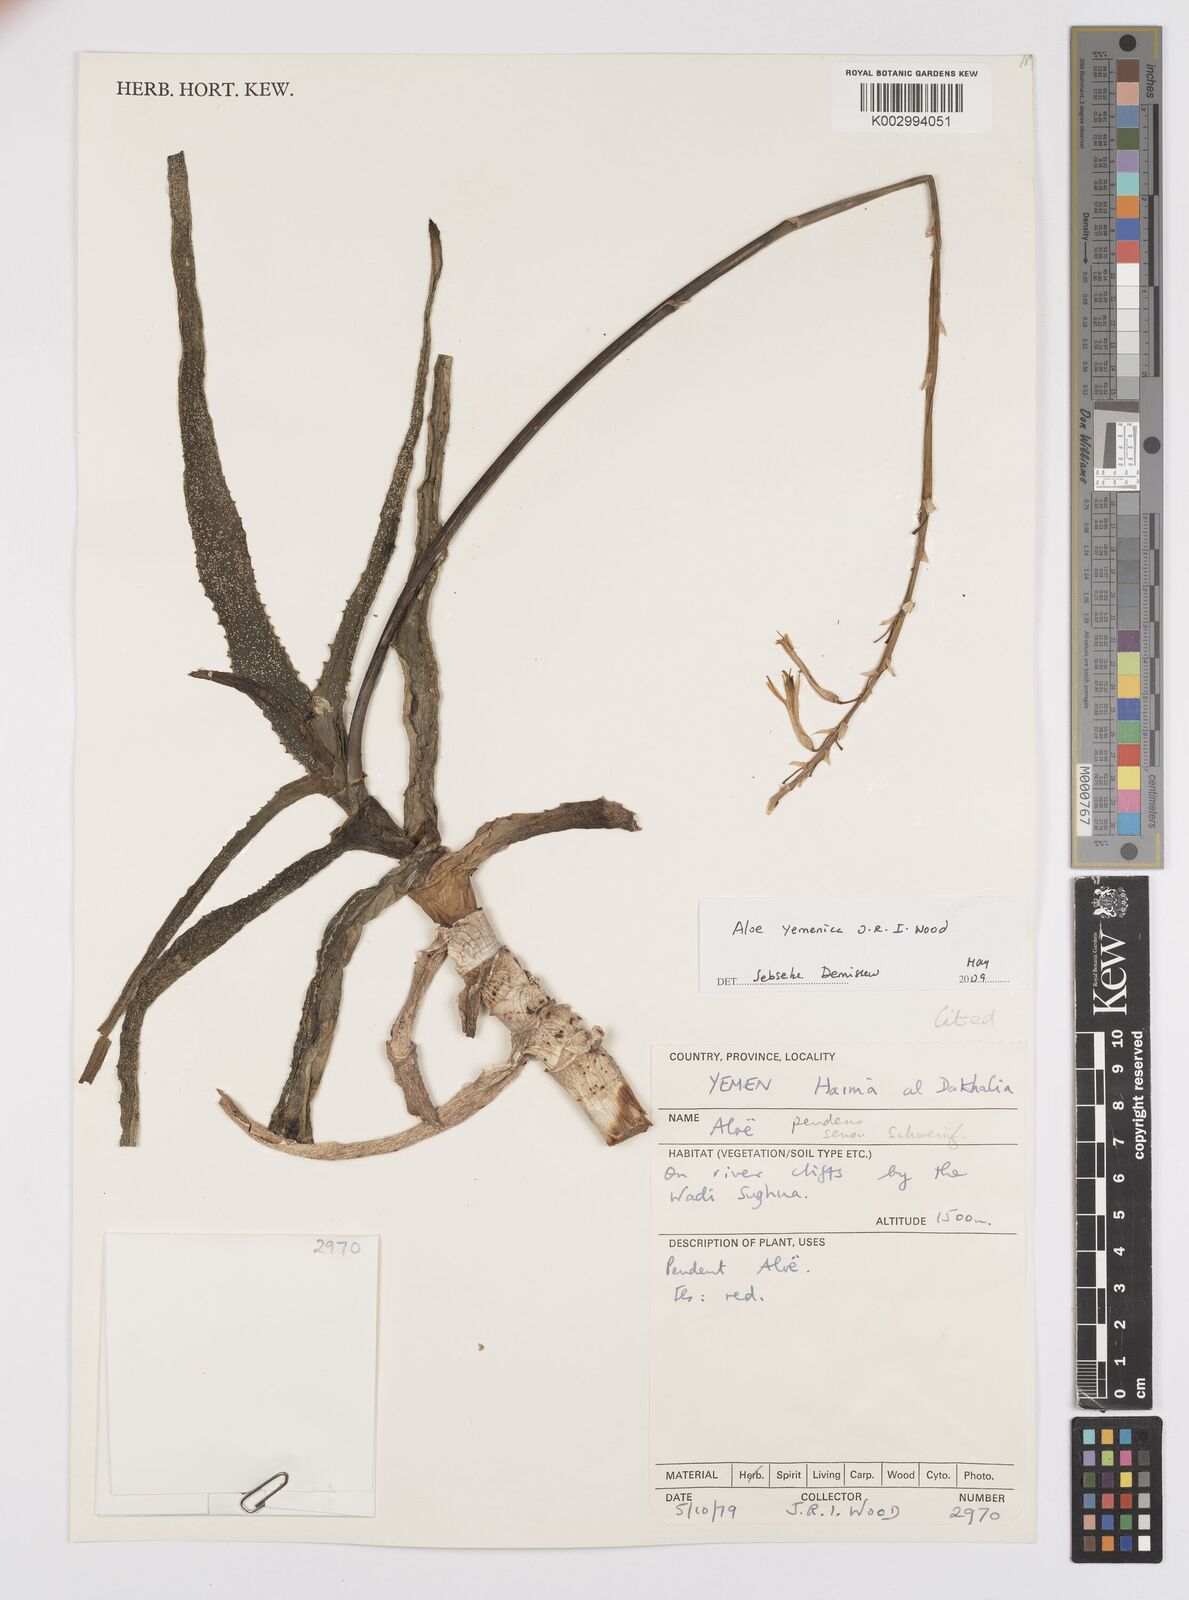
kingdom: Plantae
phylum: Tracheophyta
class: Liliopsida
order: Asparagales
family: Asphodelaceae
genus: Aloe
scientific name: Aloe yemenica
